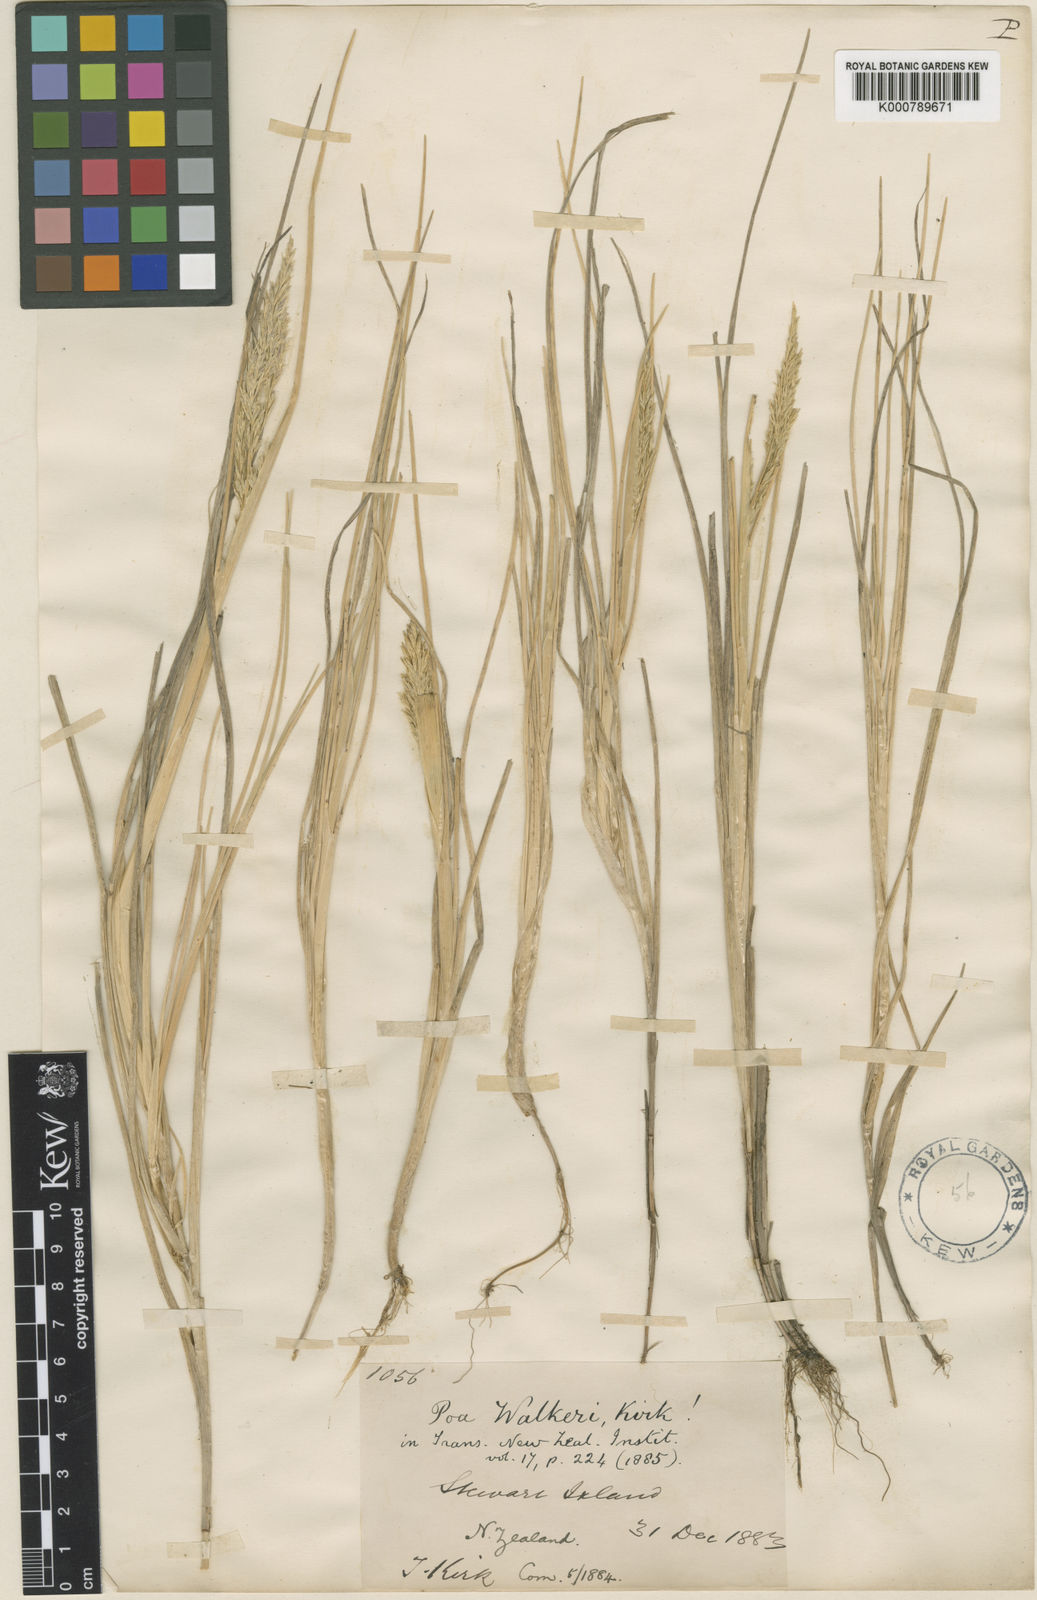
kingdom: Plantae
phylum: Tracheophyta
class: Liliopsida
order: Poales
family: Poaceae
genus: Puccinellia
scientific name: Puccinellia walkeri
